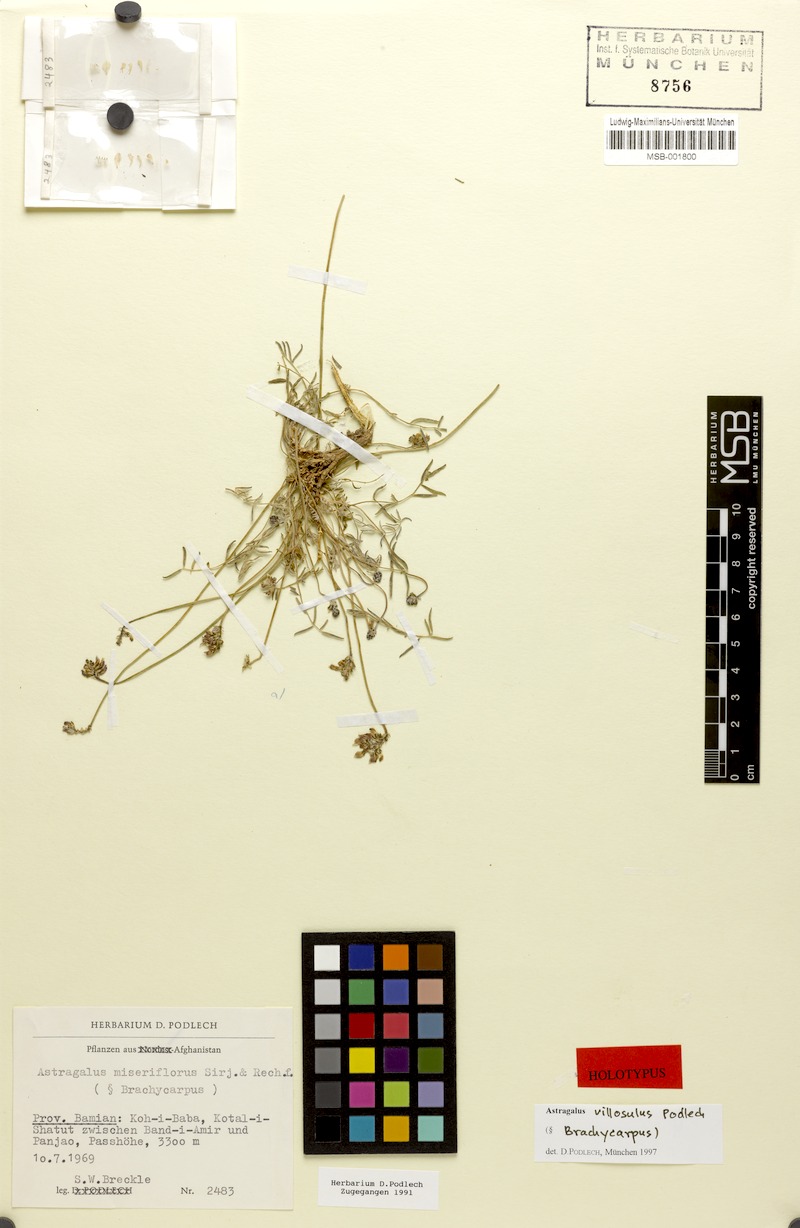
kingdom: Plantae
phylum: Tracheophyta
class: Magnoliopsida
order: Fabales
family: Fabaceae
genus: Astragalus
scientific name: Astragalus villosulus
